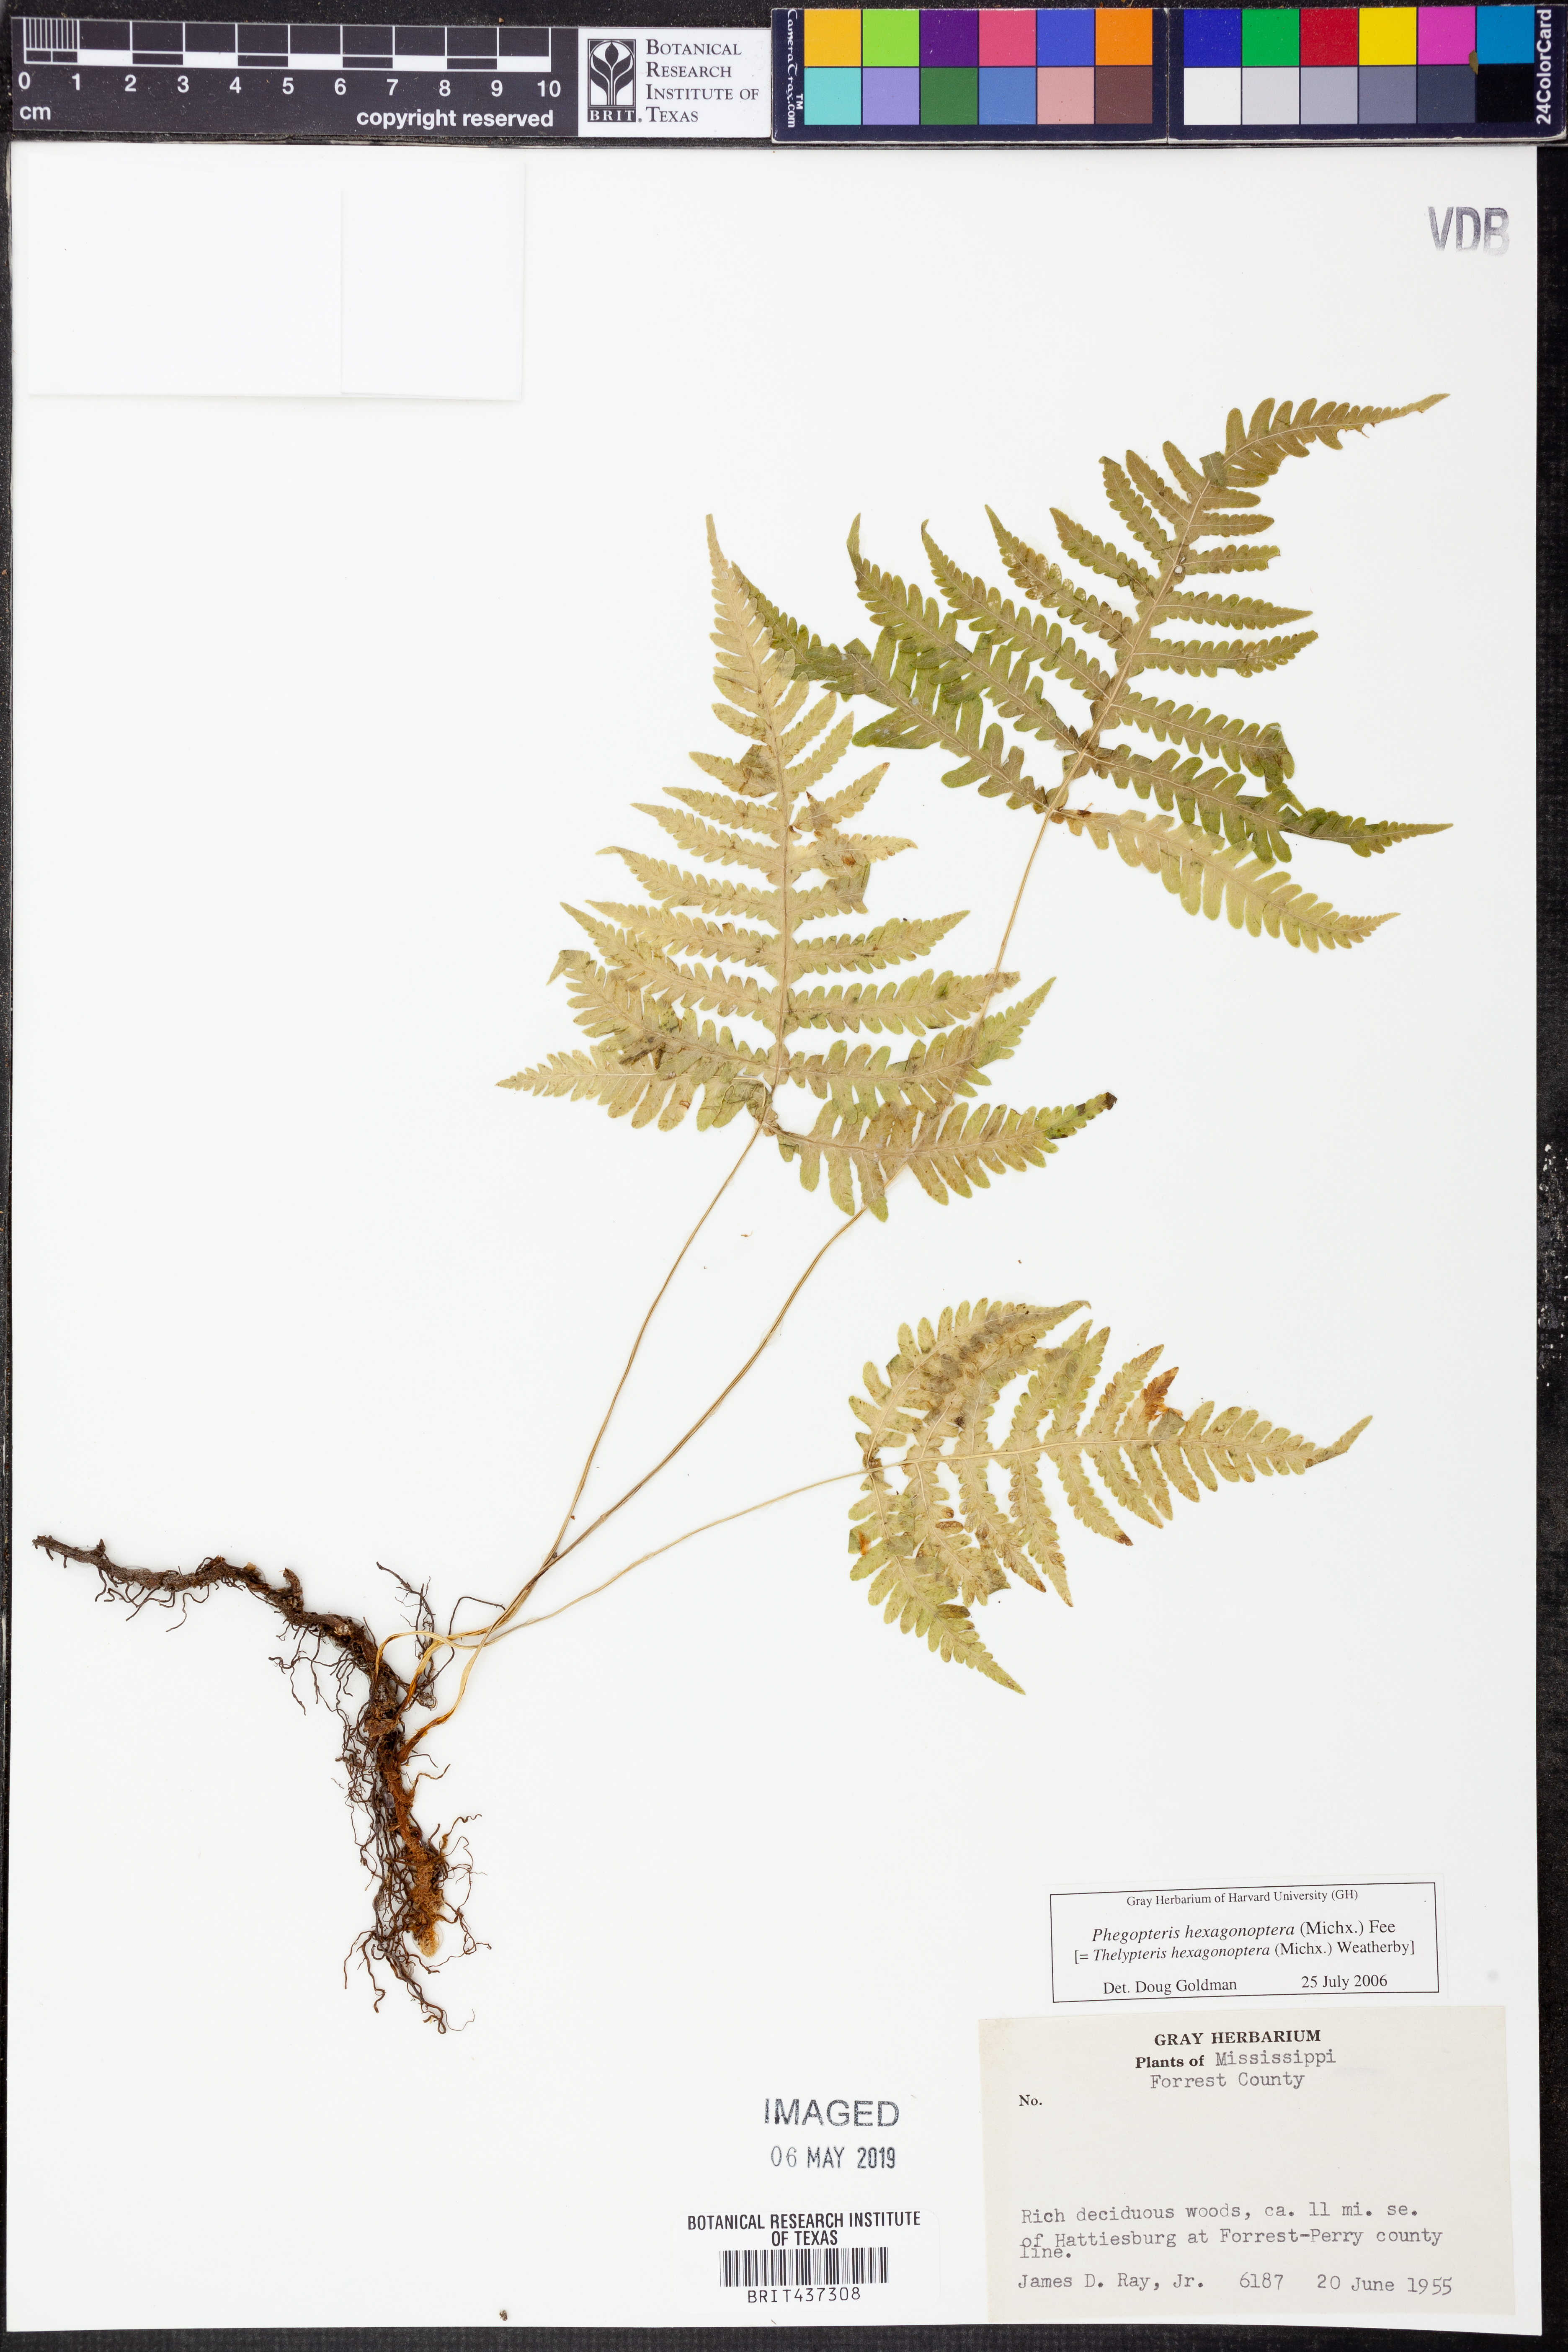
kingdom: Plantae
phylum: Tracheophyta
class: Polypodiopsida
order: Polypodiales
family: Thelypteridaceae
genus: Phegopteris
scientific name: Phegopteris hexagonoptera
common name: Broad beech fern
